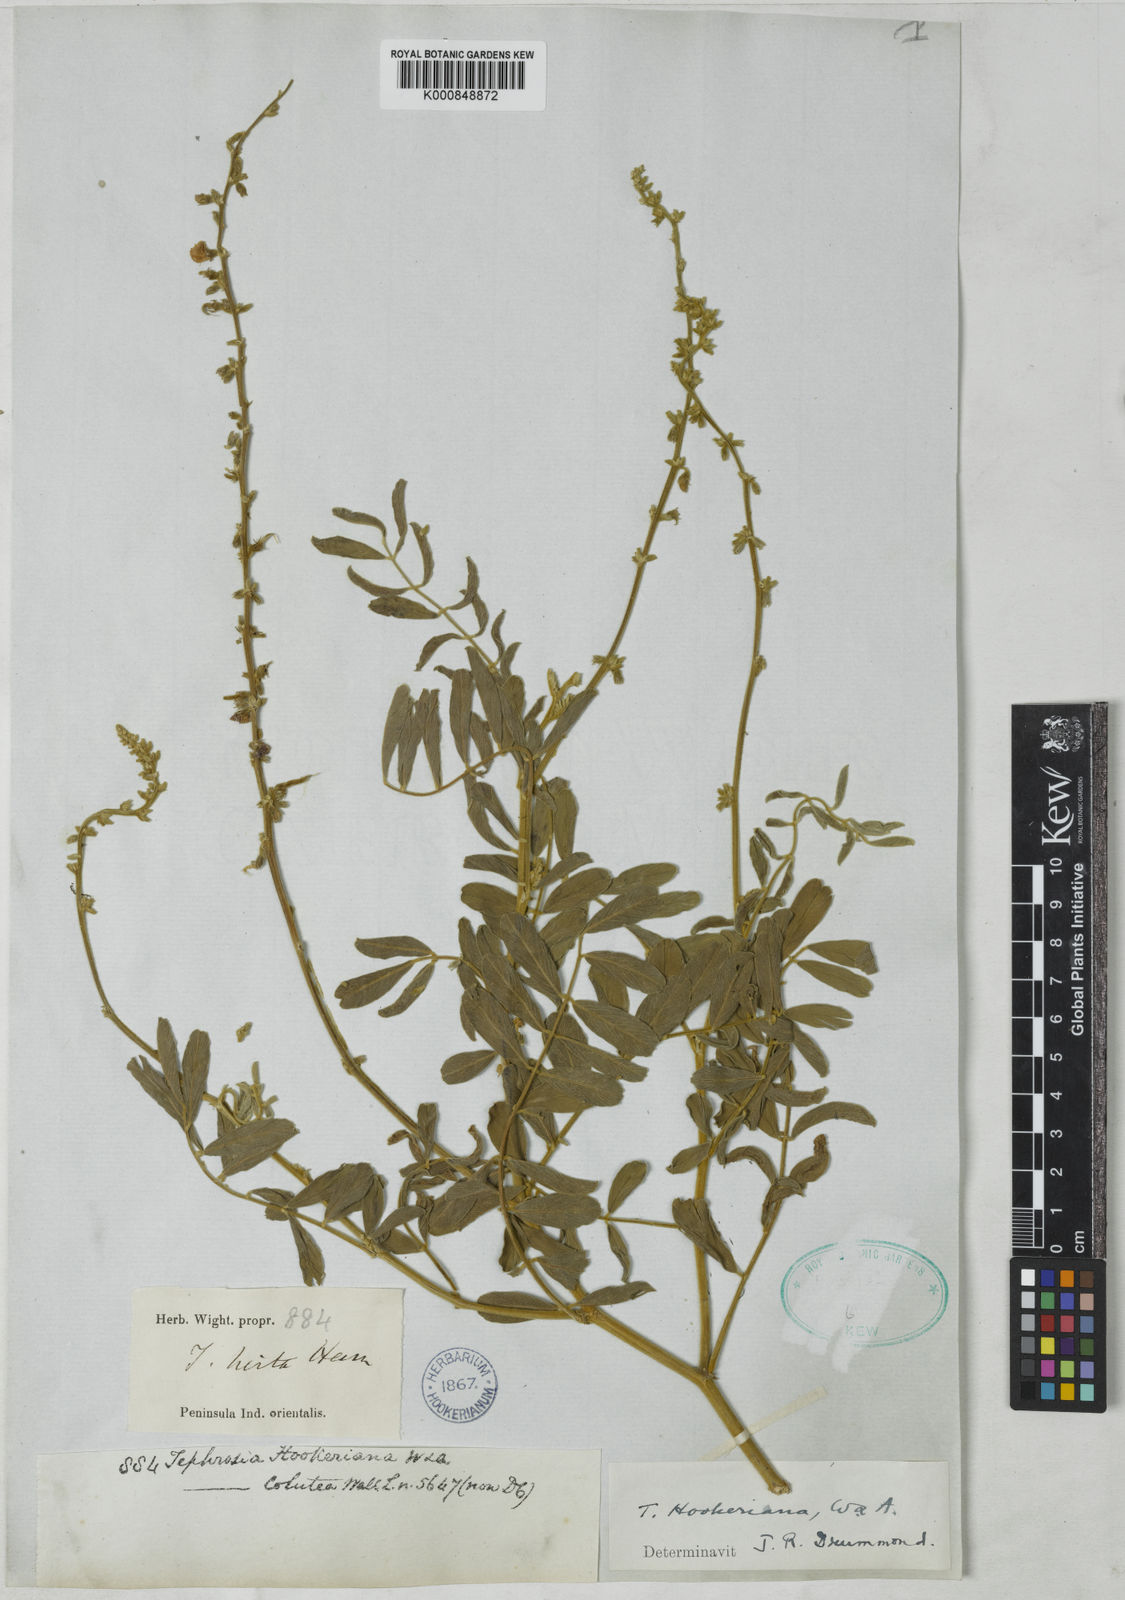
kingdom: Plantae
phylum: Tracheophyta
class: Magnoliopsida
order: Fabales
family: Fabaceae
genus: Tephrosia
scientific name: Tephrosia hookeriana
